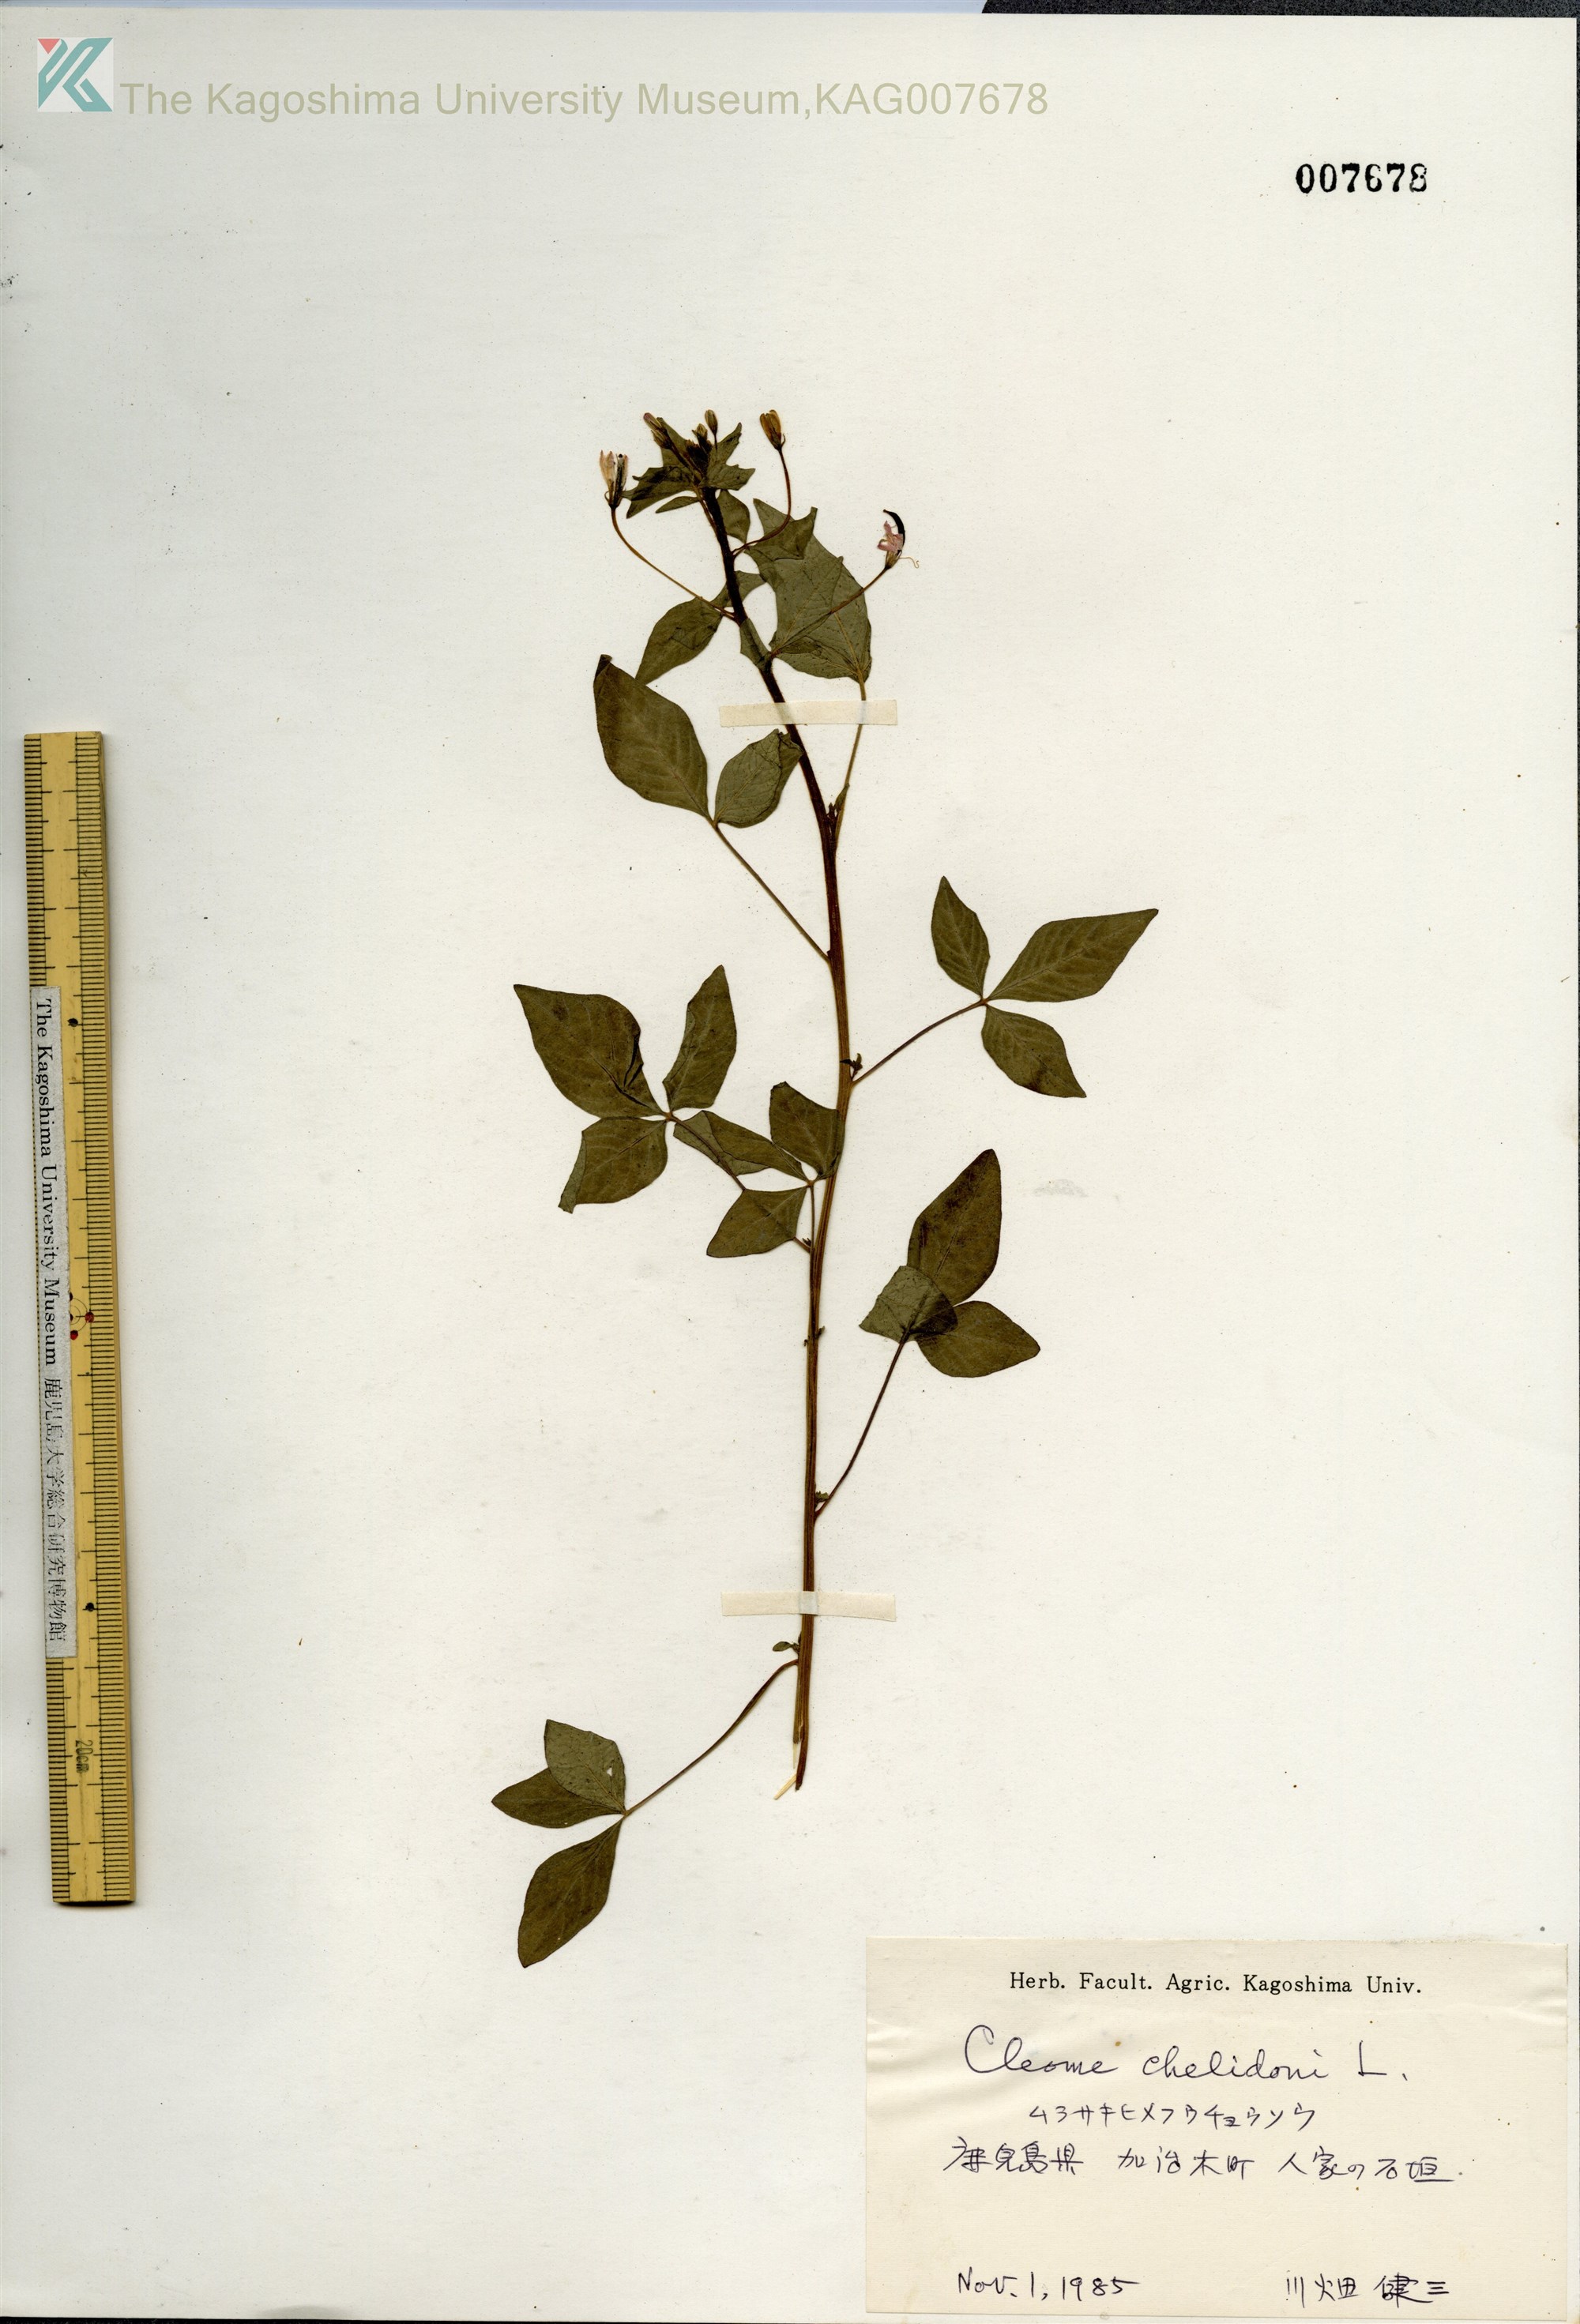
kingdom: Plantae
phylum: Tracheophyta
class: Magnoliopsida
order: Brassicales
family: Cleomaceae
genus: Corynandra
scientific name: Corynandra chelidonii
